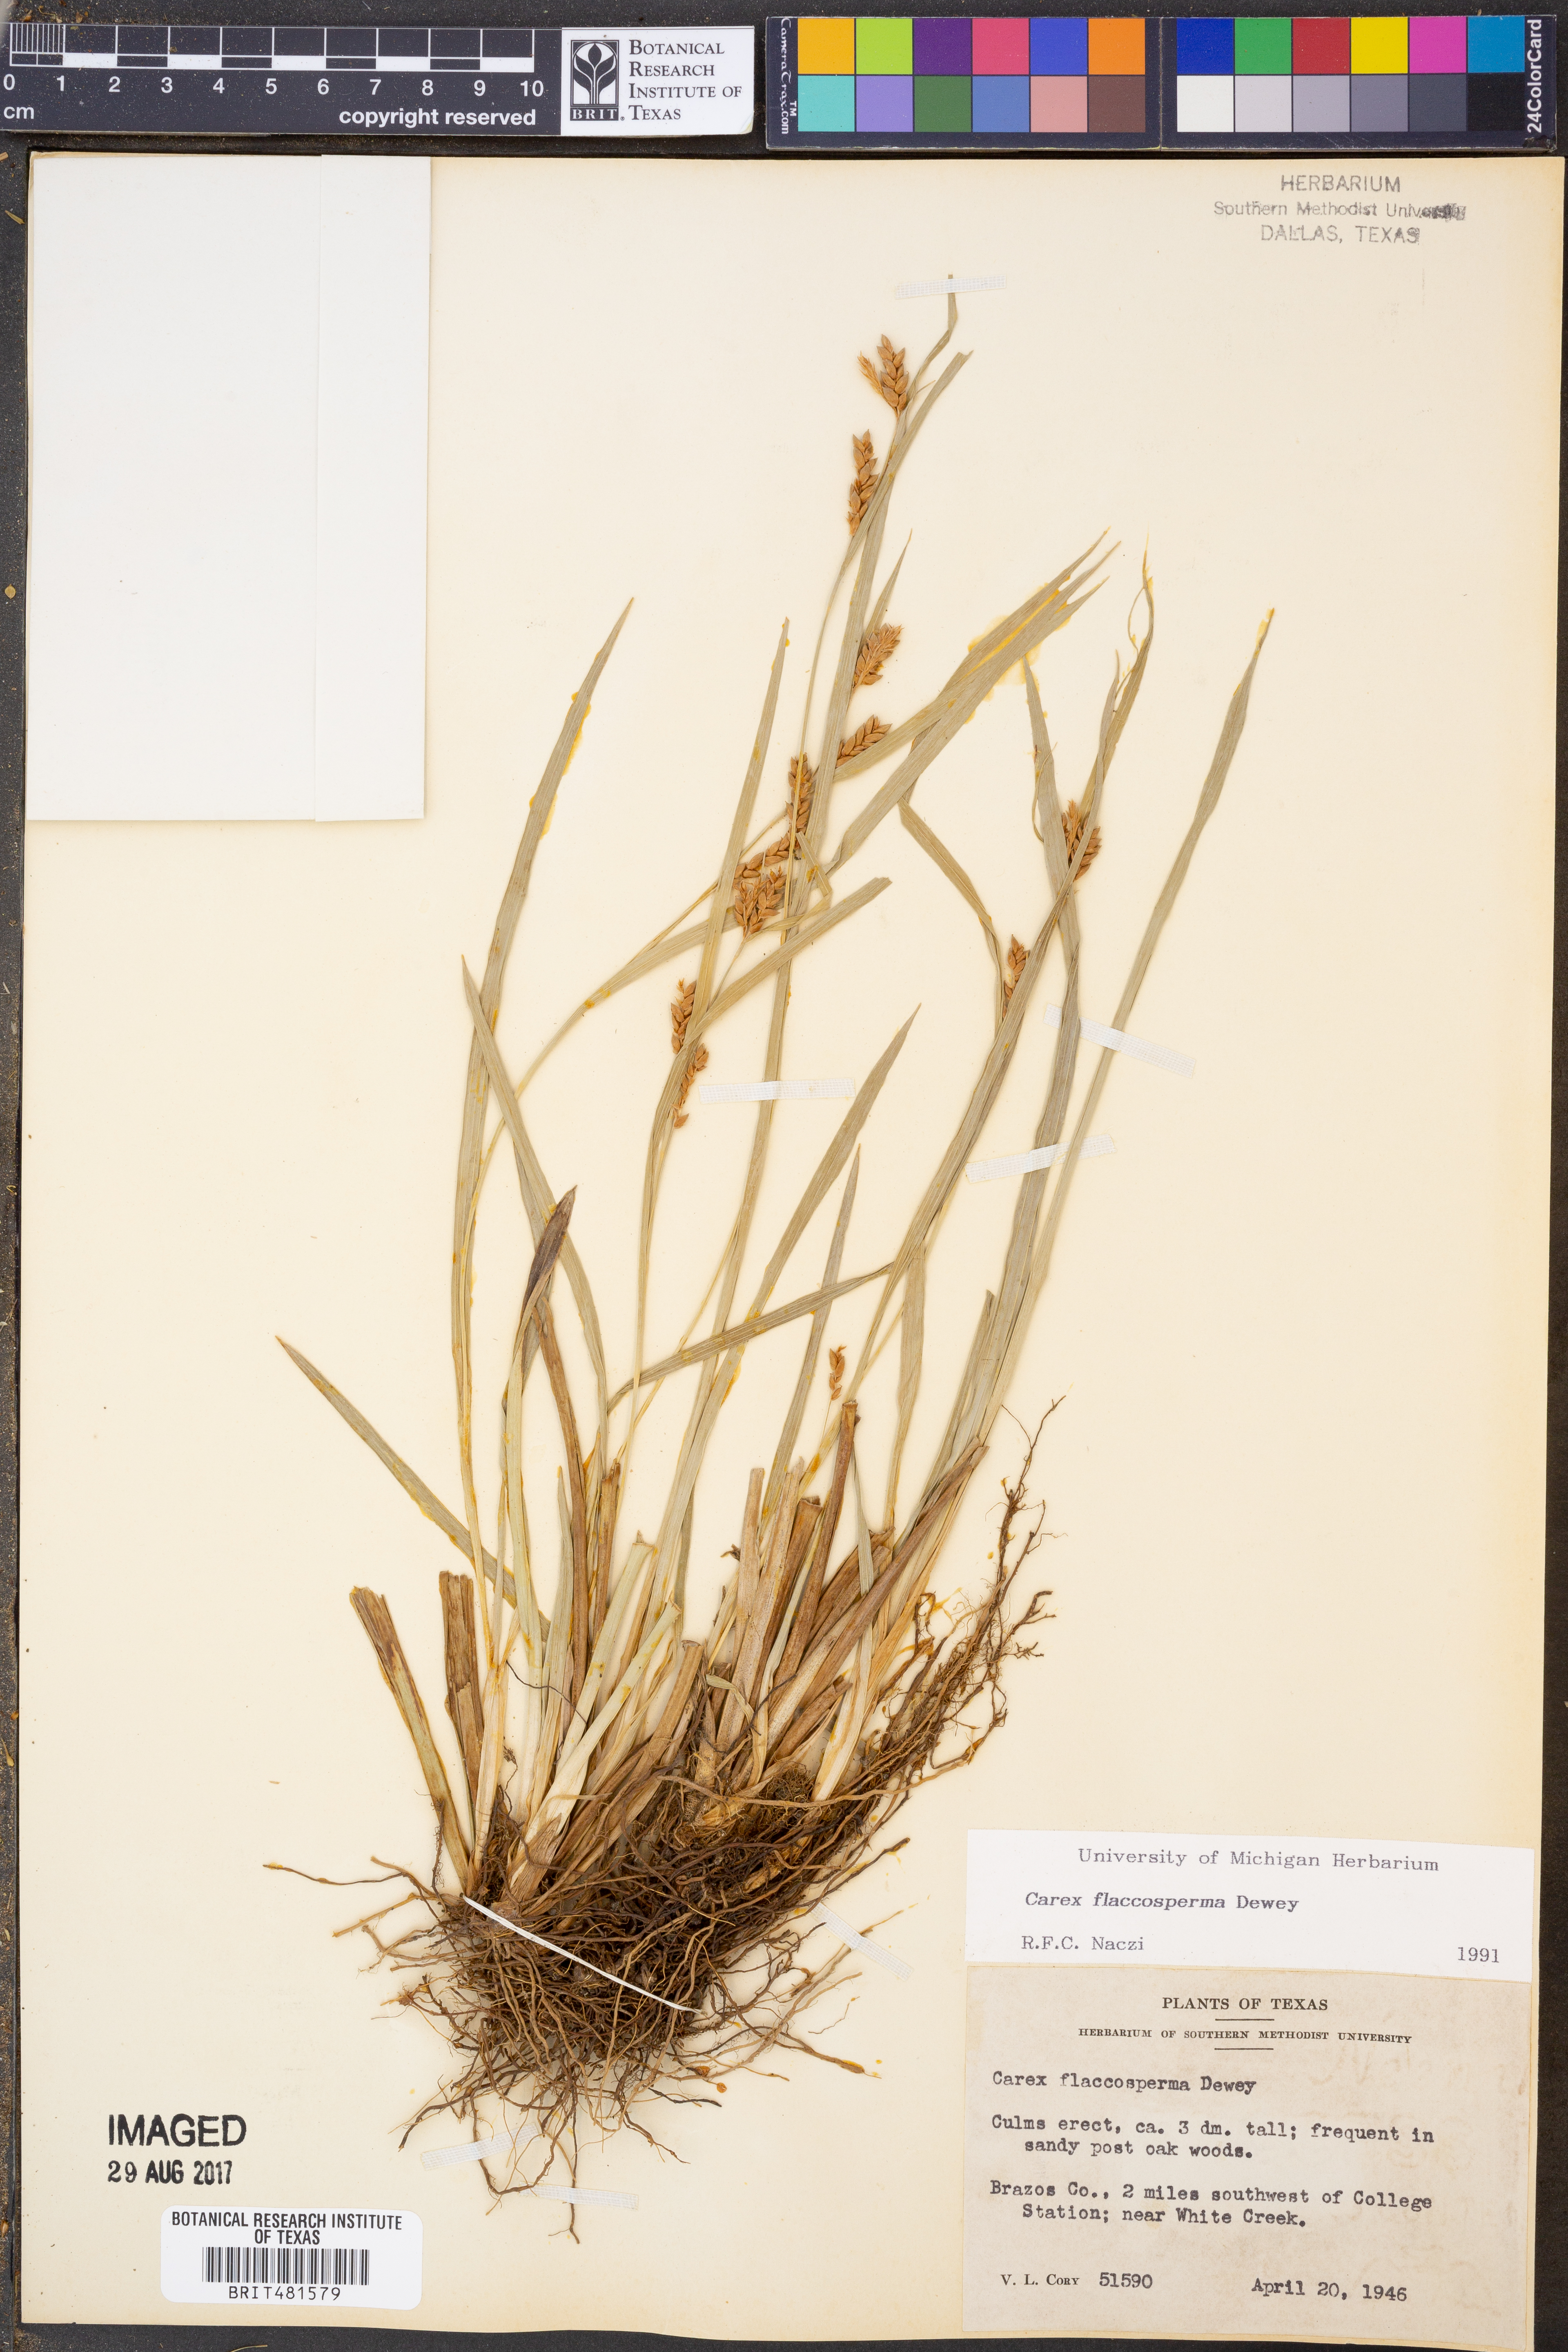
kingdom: Plantae
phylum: Tracheophyta
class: Liliopsida
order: Poales
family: Cyperaceae
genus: Carex
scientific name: Carex flaccosperma
